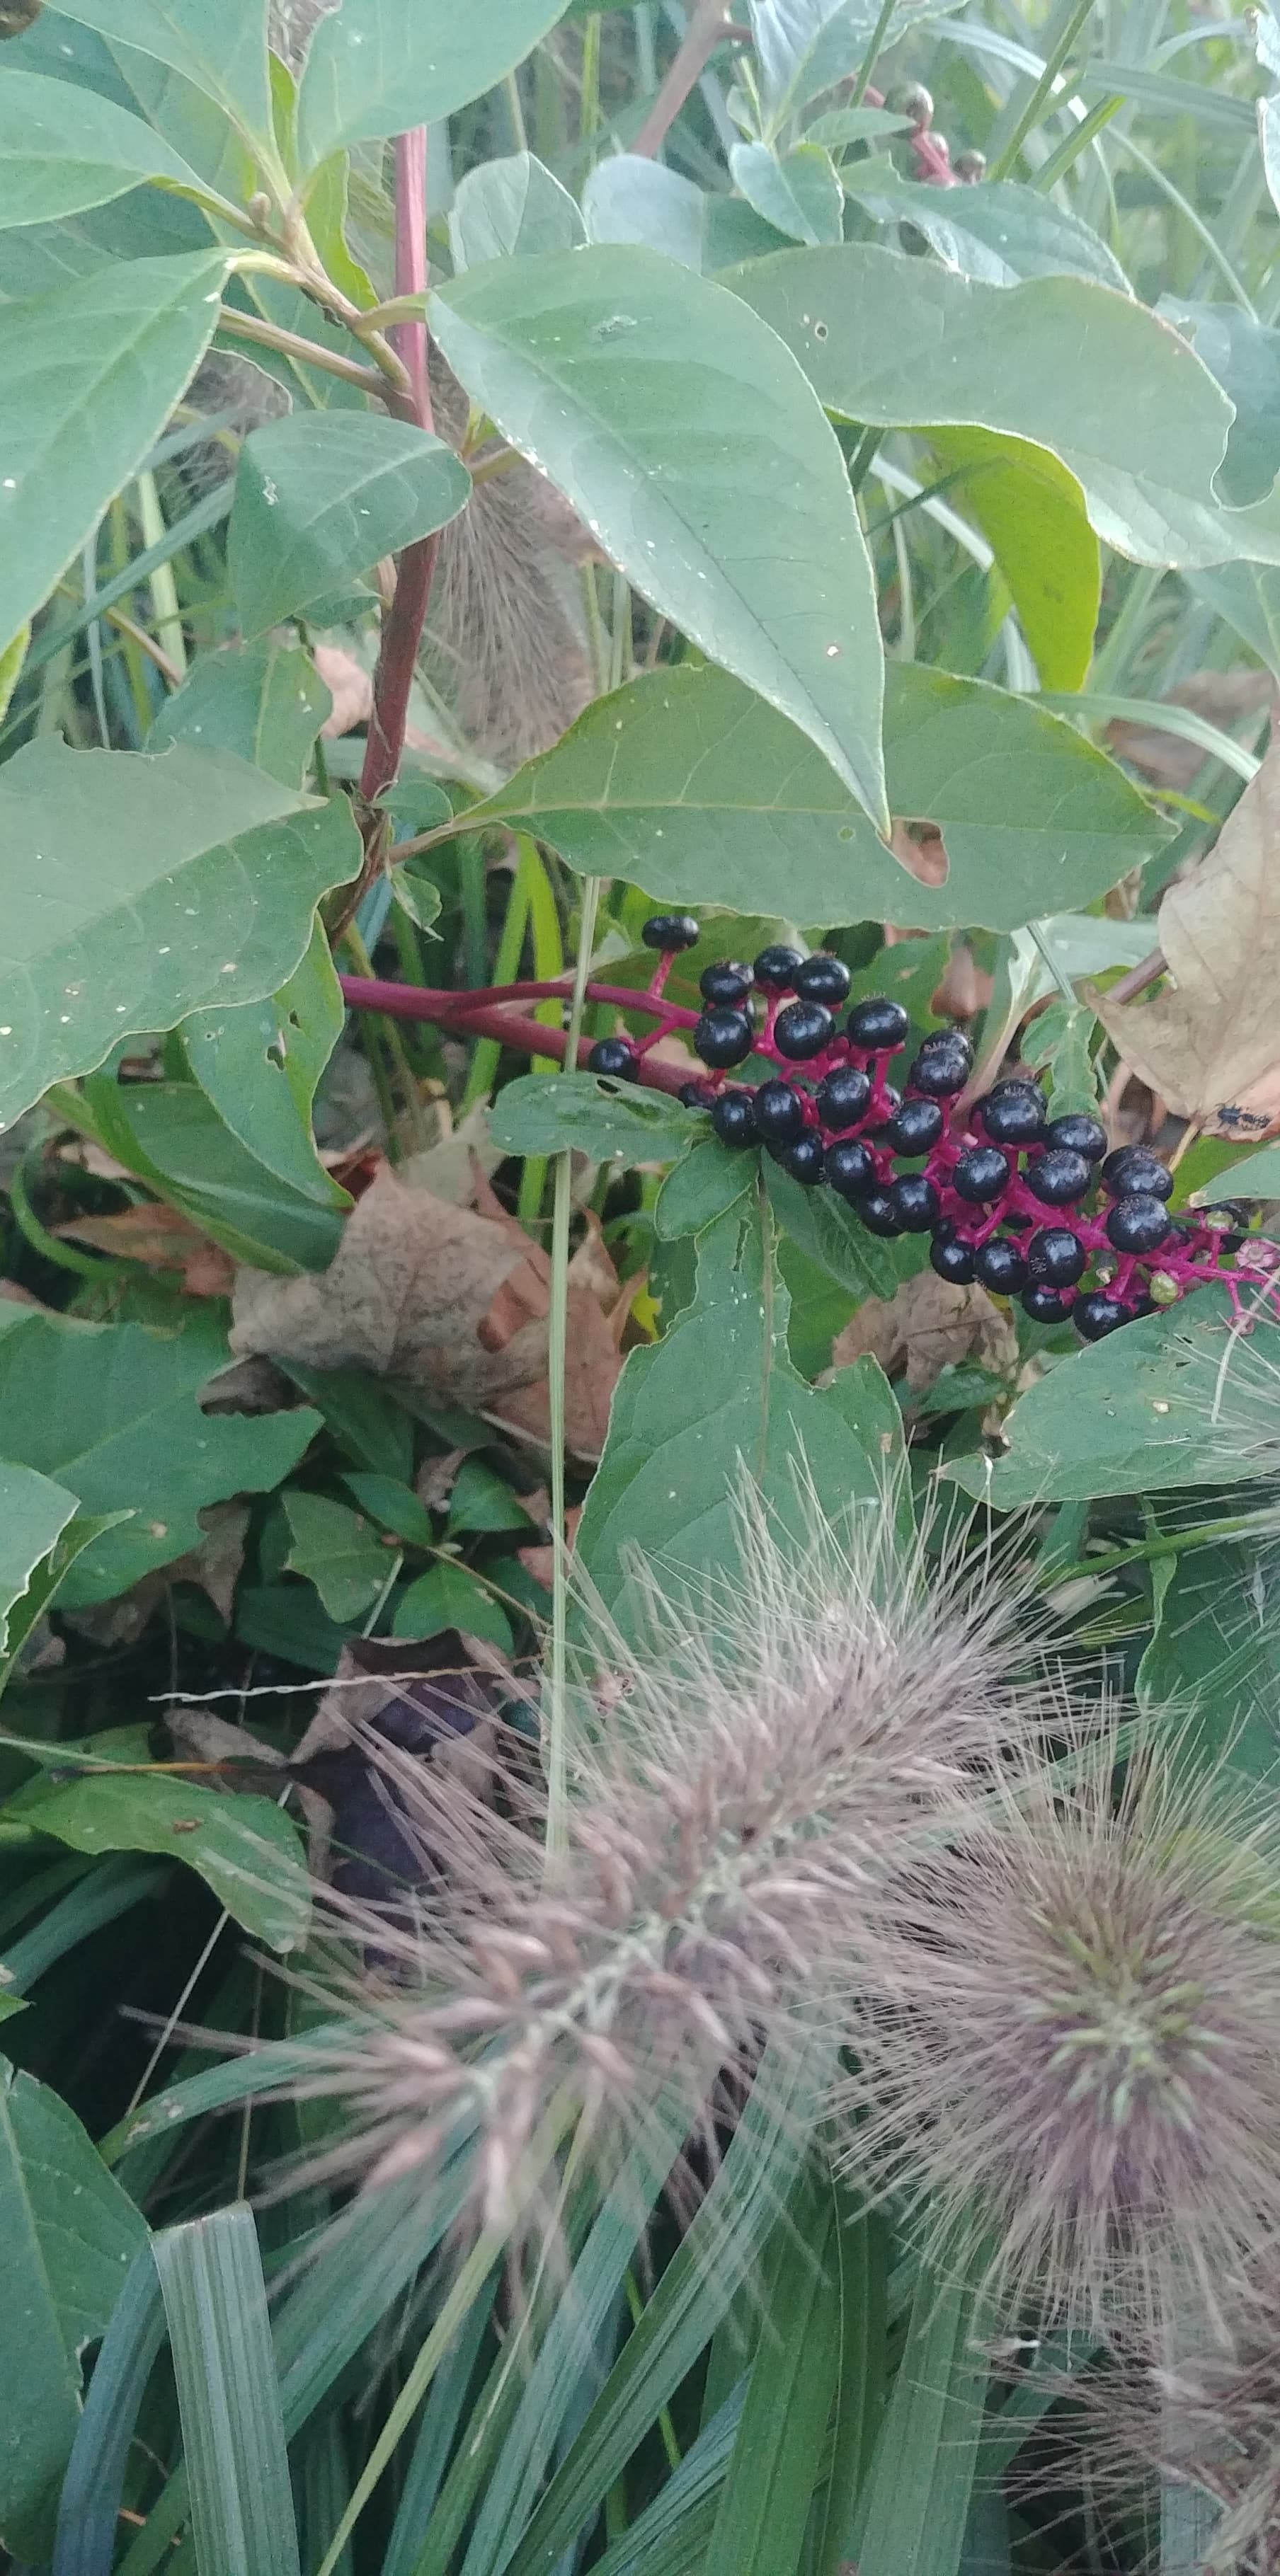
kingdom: Plantae
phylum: Tracheophyta
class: Magnoliopsida
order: Caryophyllales
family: Phytolaccaceae
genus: Phytolacca
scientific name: Phytolacca americana
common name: pokeweed
